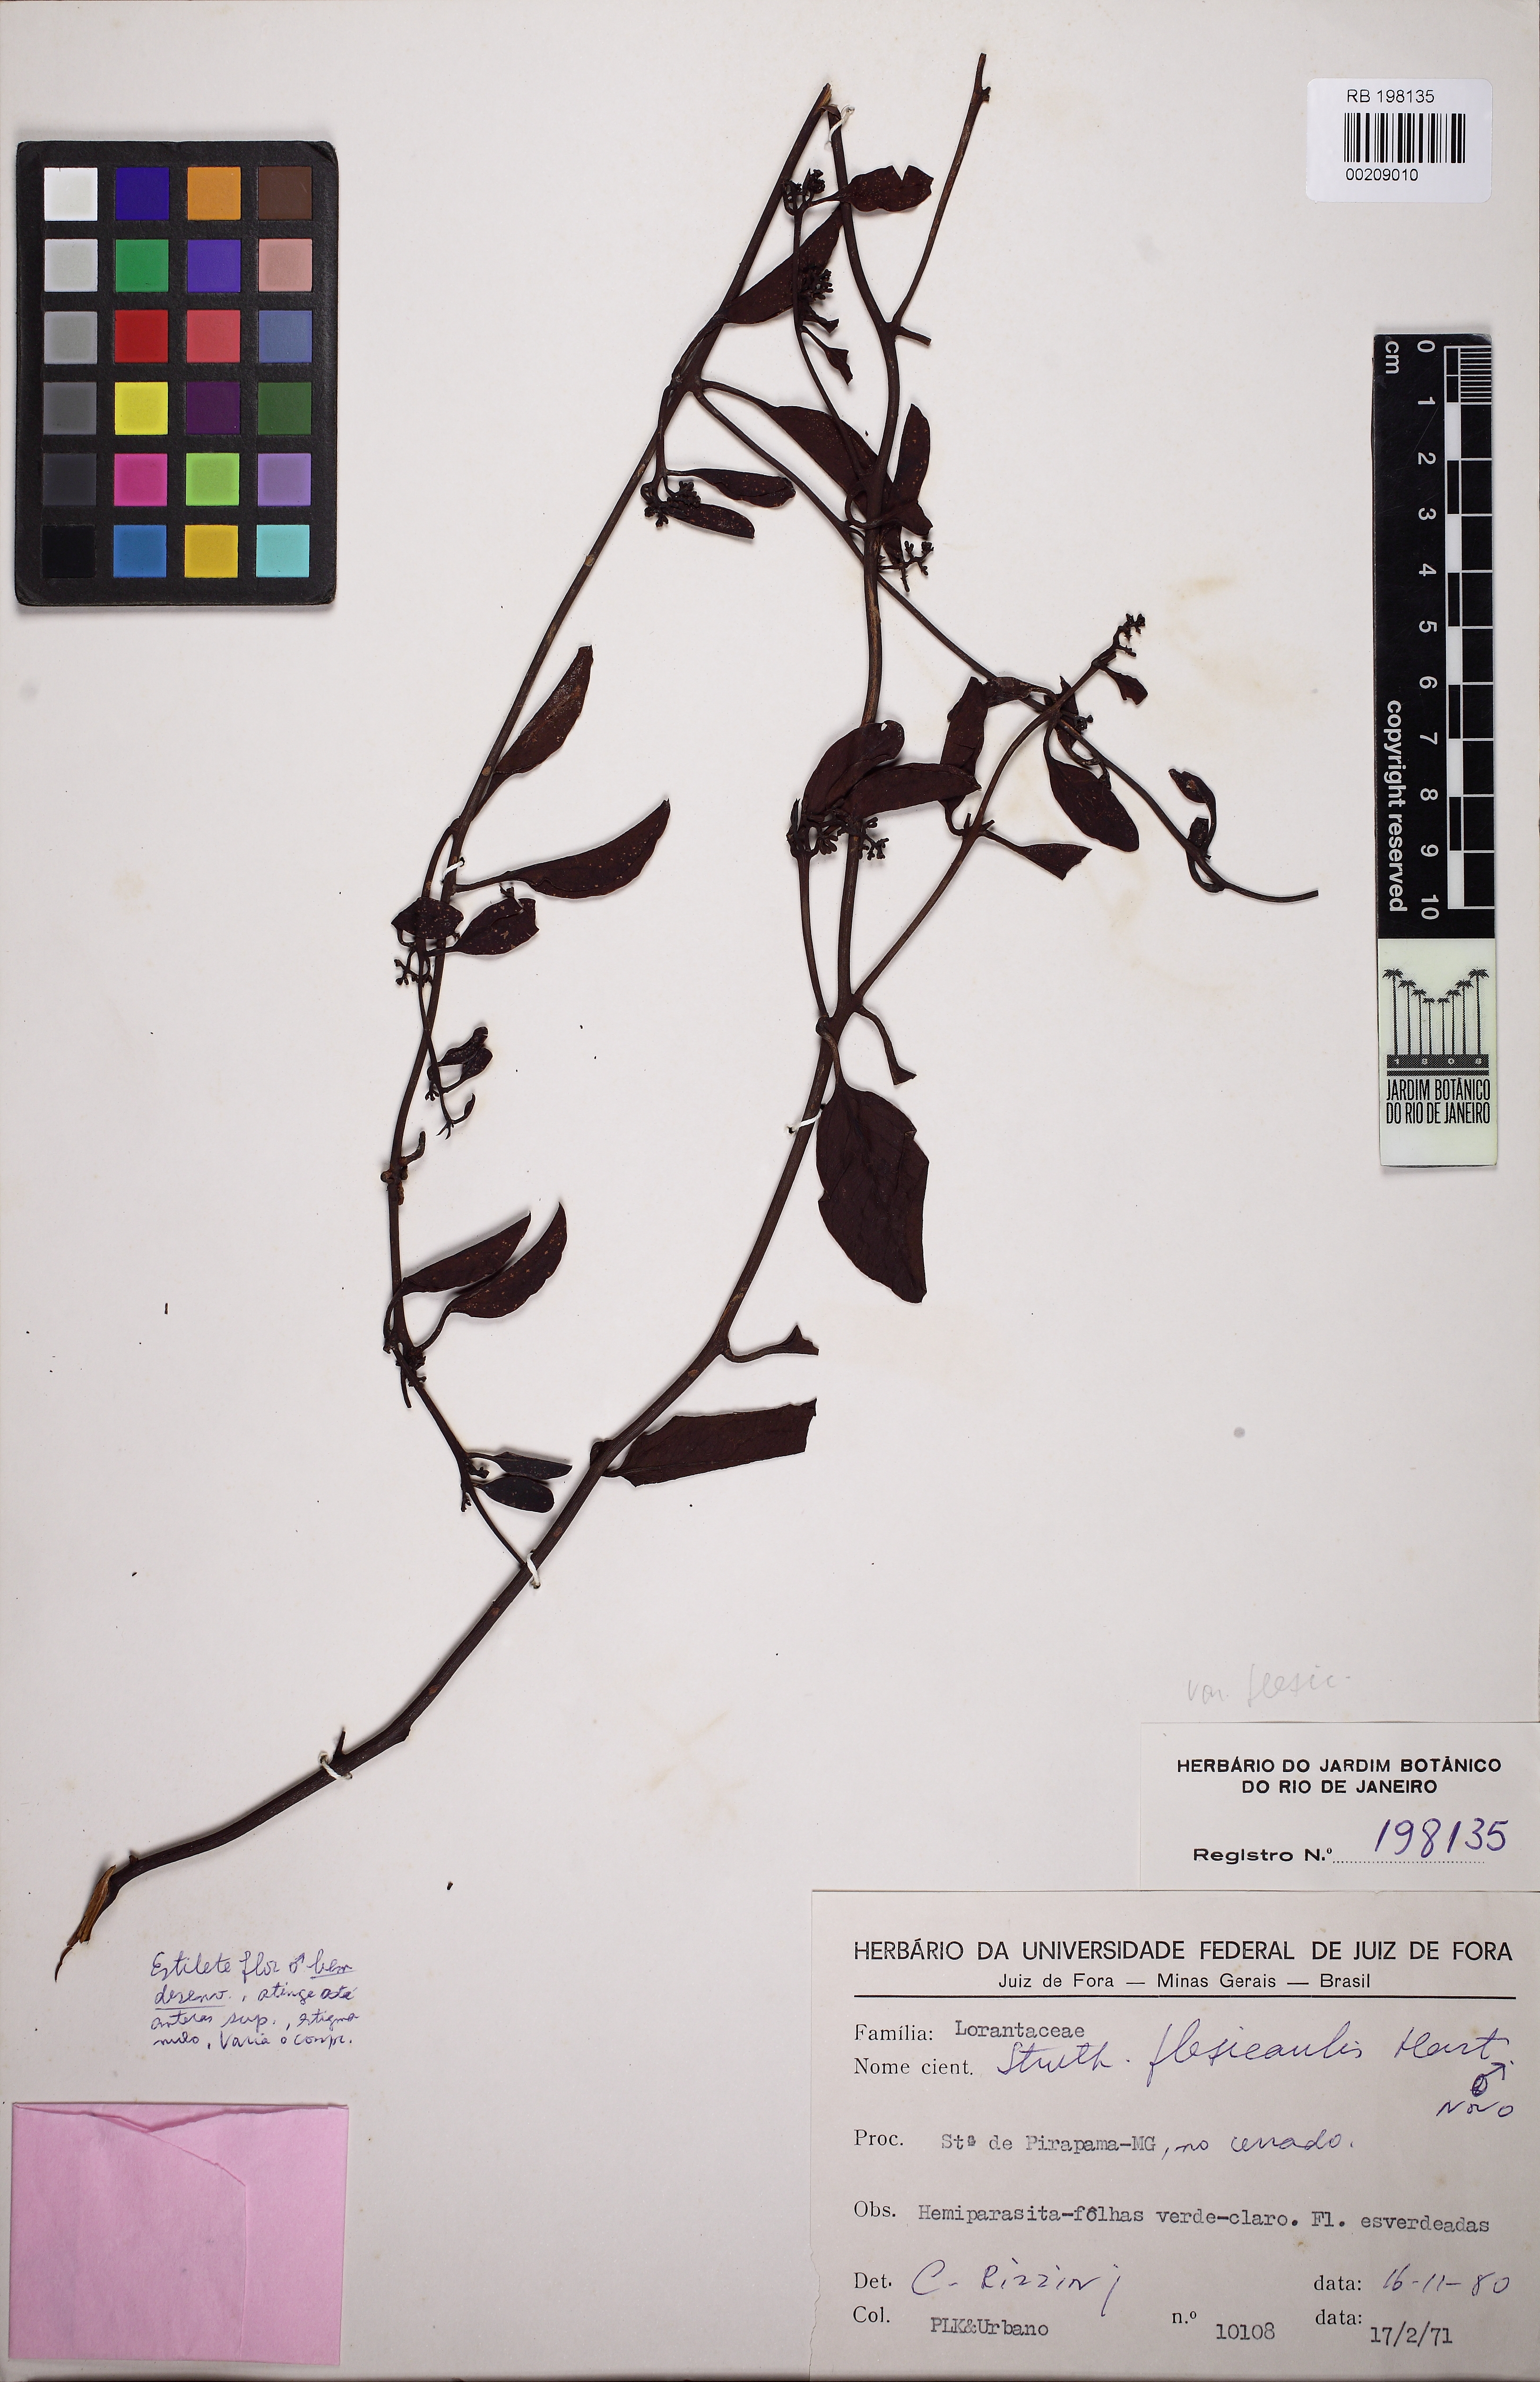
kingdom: Plantae
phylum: Tracheophyta
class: Magnoliopsida
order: Santalales
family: Loranthaceae
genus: Struthanthus
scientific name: Struthanthus flexicaulis
